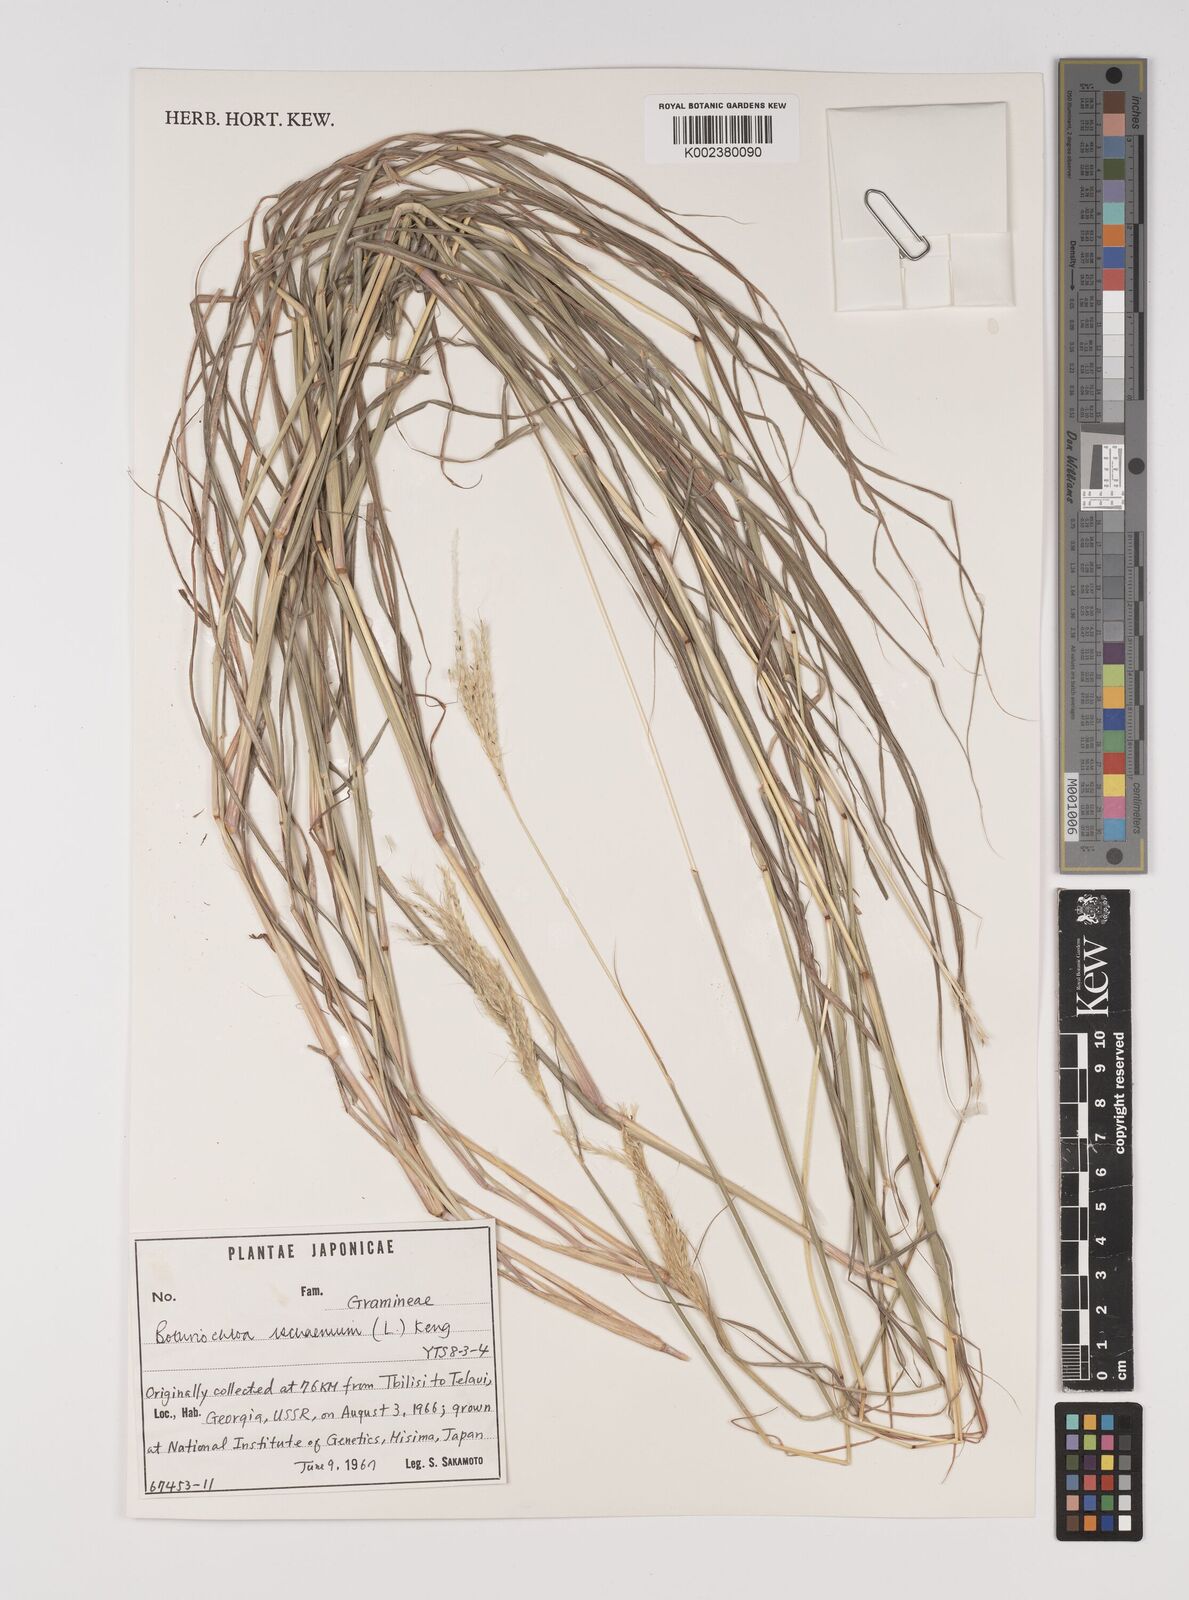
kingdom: Plantae
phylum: Tracheophyta
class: Liliopsida
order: Poales
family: Poaceae
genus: Bothriochloa
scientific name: Bothriochloa ischaemum
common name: Yellow bluestem
